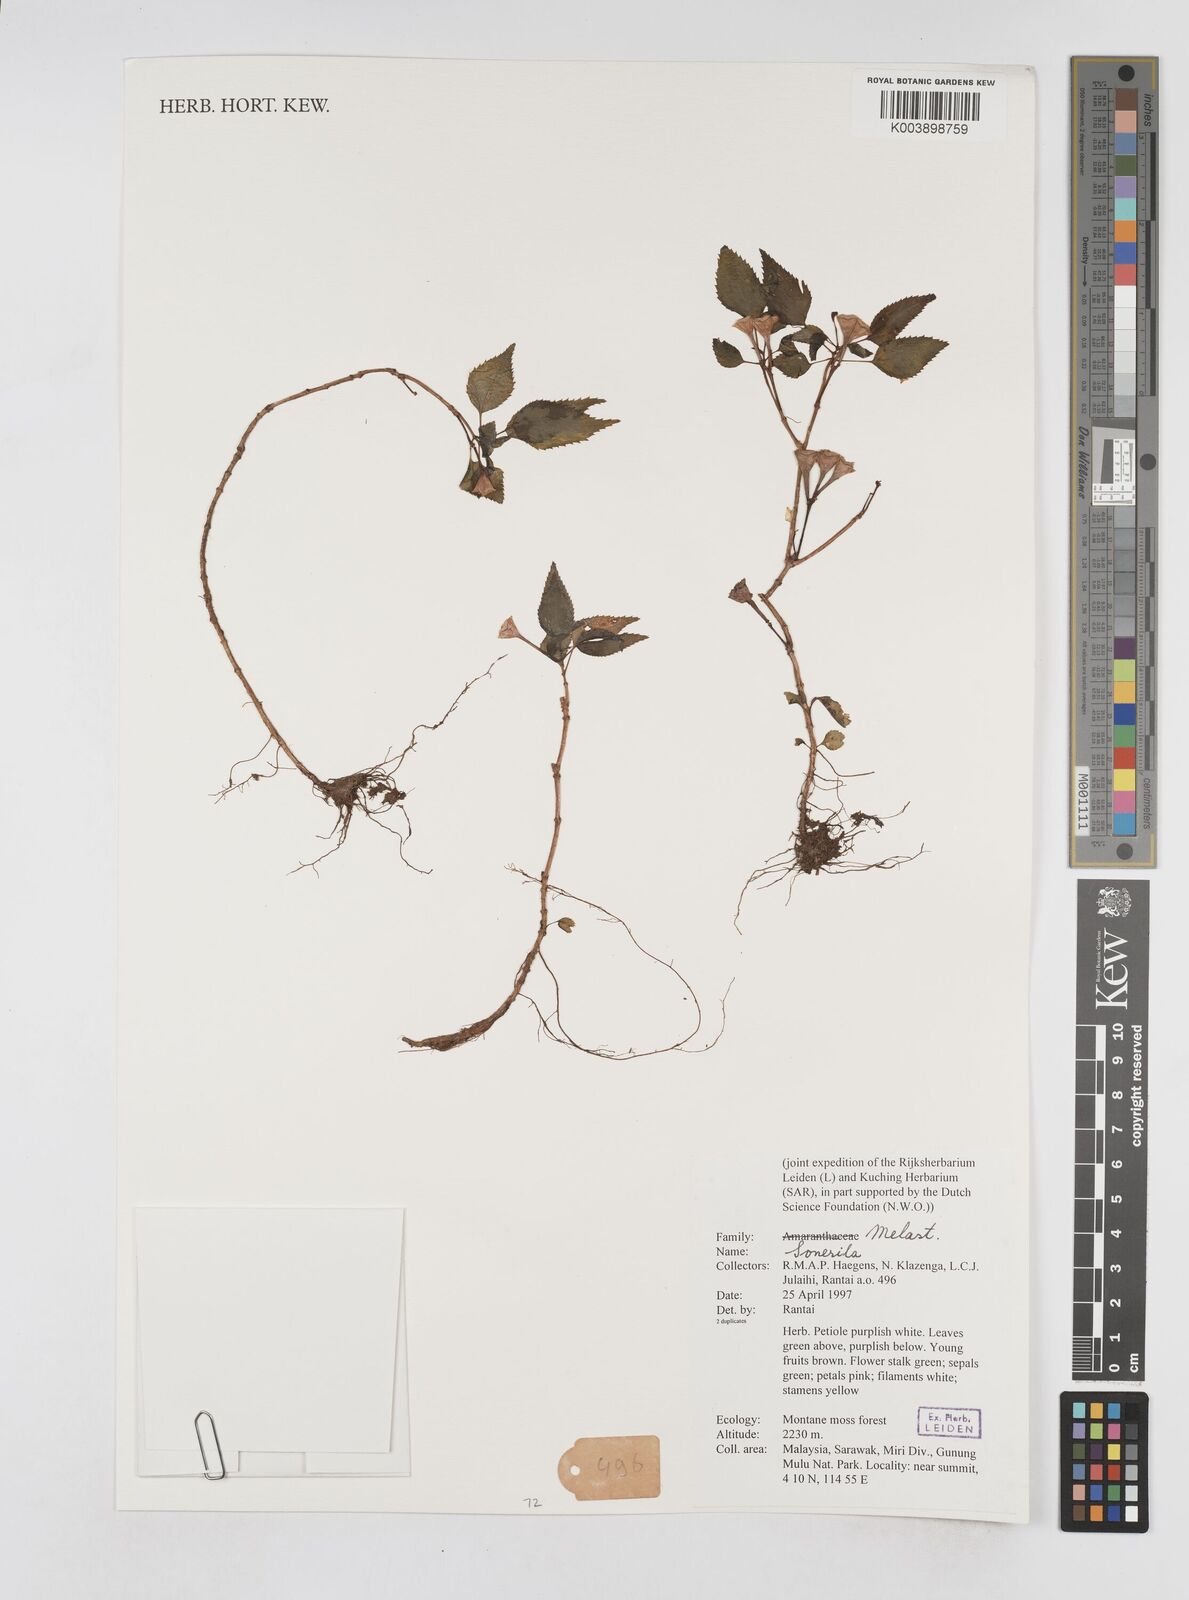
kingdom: Plantae
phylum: Tracheophyta
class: Magnoliopsida
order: Myrtales
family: Melastomataceae
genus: Sonerila
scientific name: Sonerila
